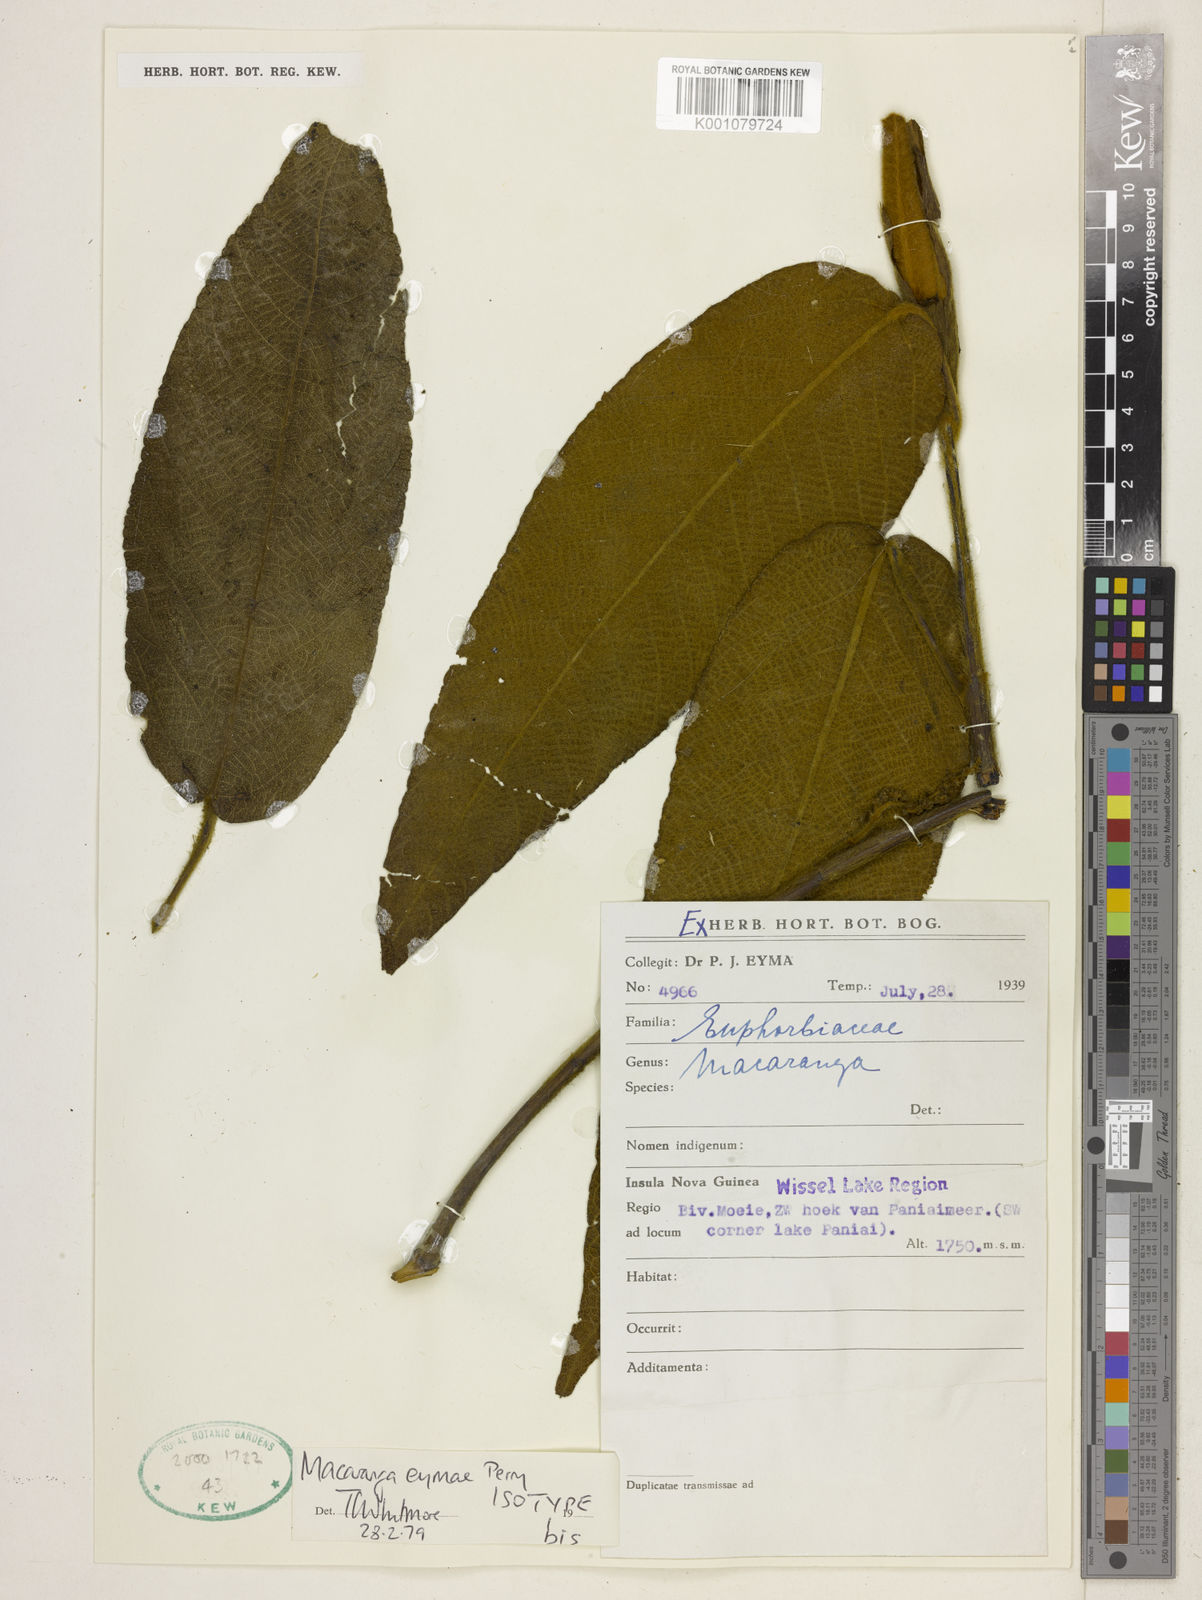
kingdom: Plantae
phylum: Tracheophyta
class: Magnoliopsida
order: Malpighiales
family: Euphorbiaceae
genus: Macaranga
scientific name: Macaranga eymae
